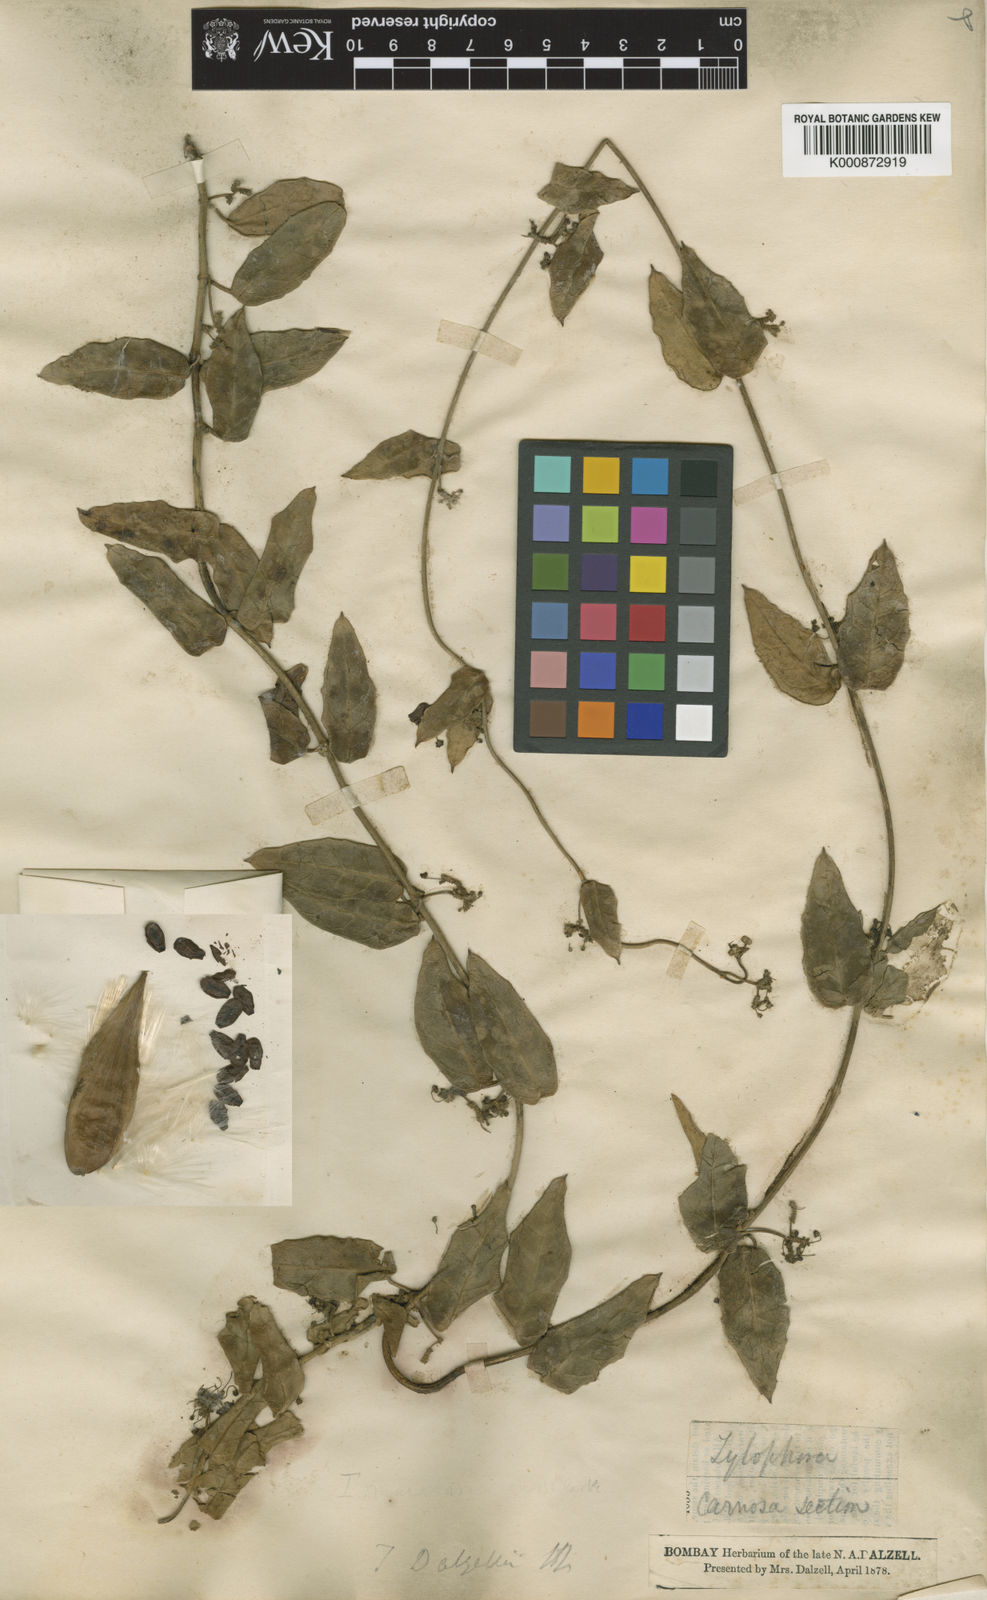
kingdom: Plantae
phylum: Tracheophyta
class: Magnoliopsida
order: Gentianales
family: Apocynaceae
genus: Vincetoxicum
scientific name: Vincetoxicum dalzellii
